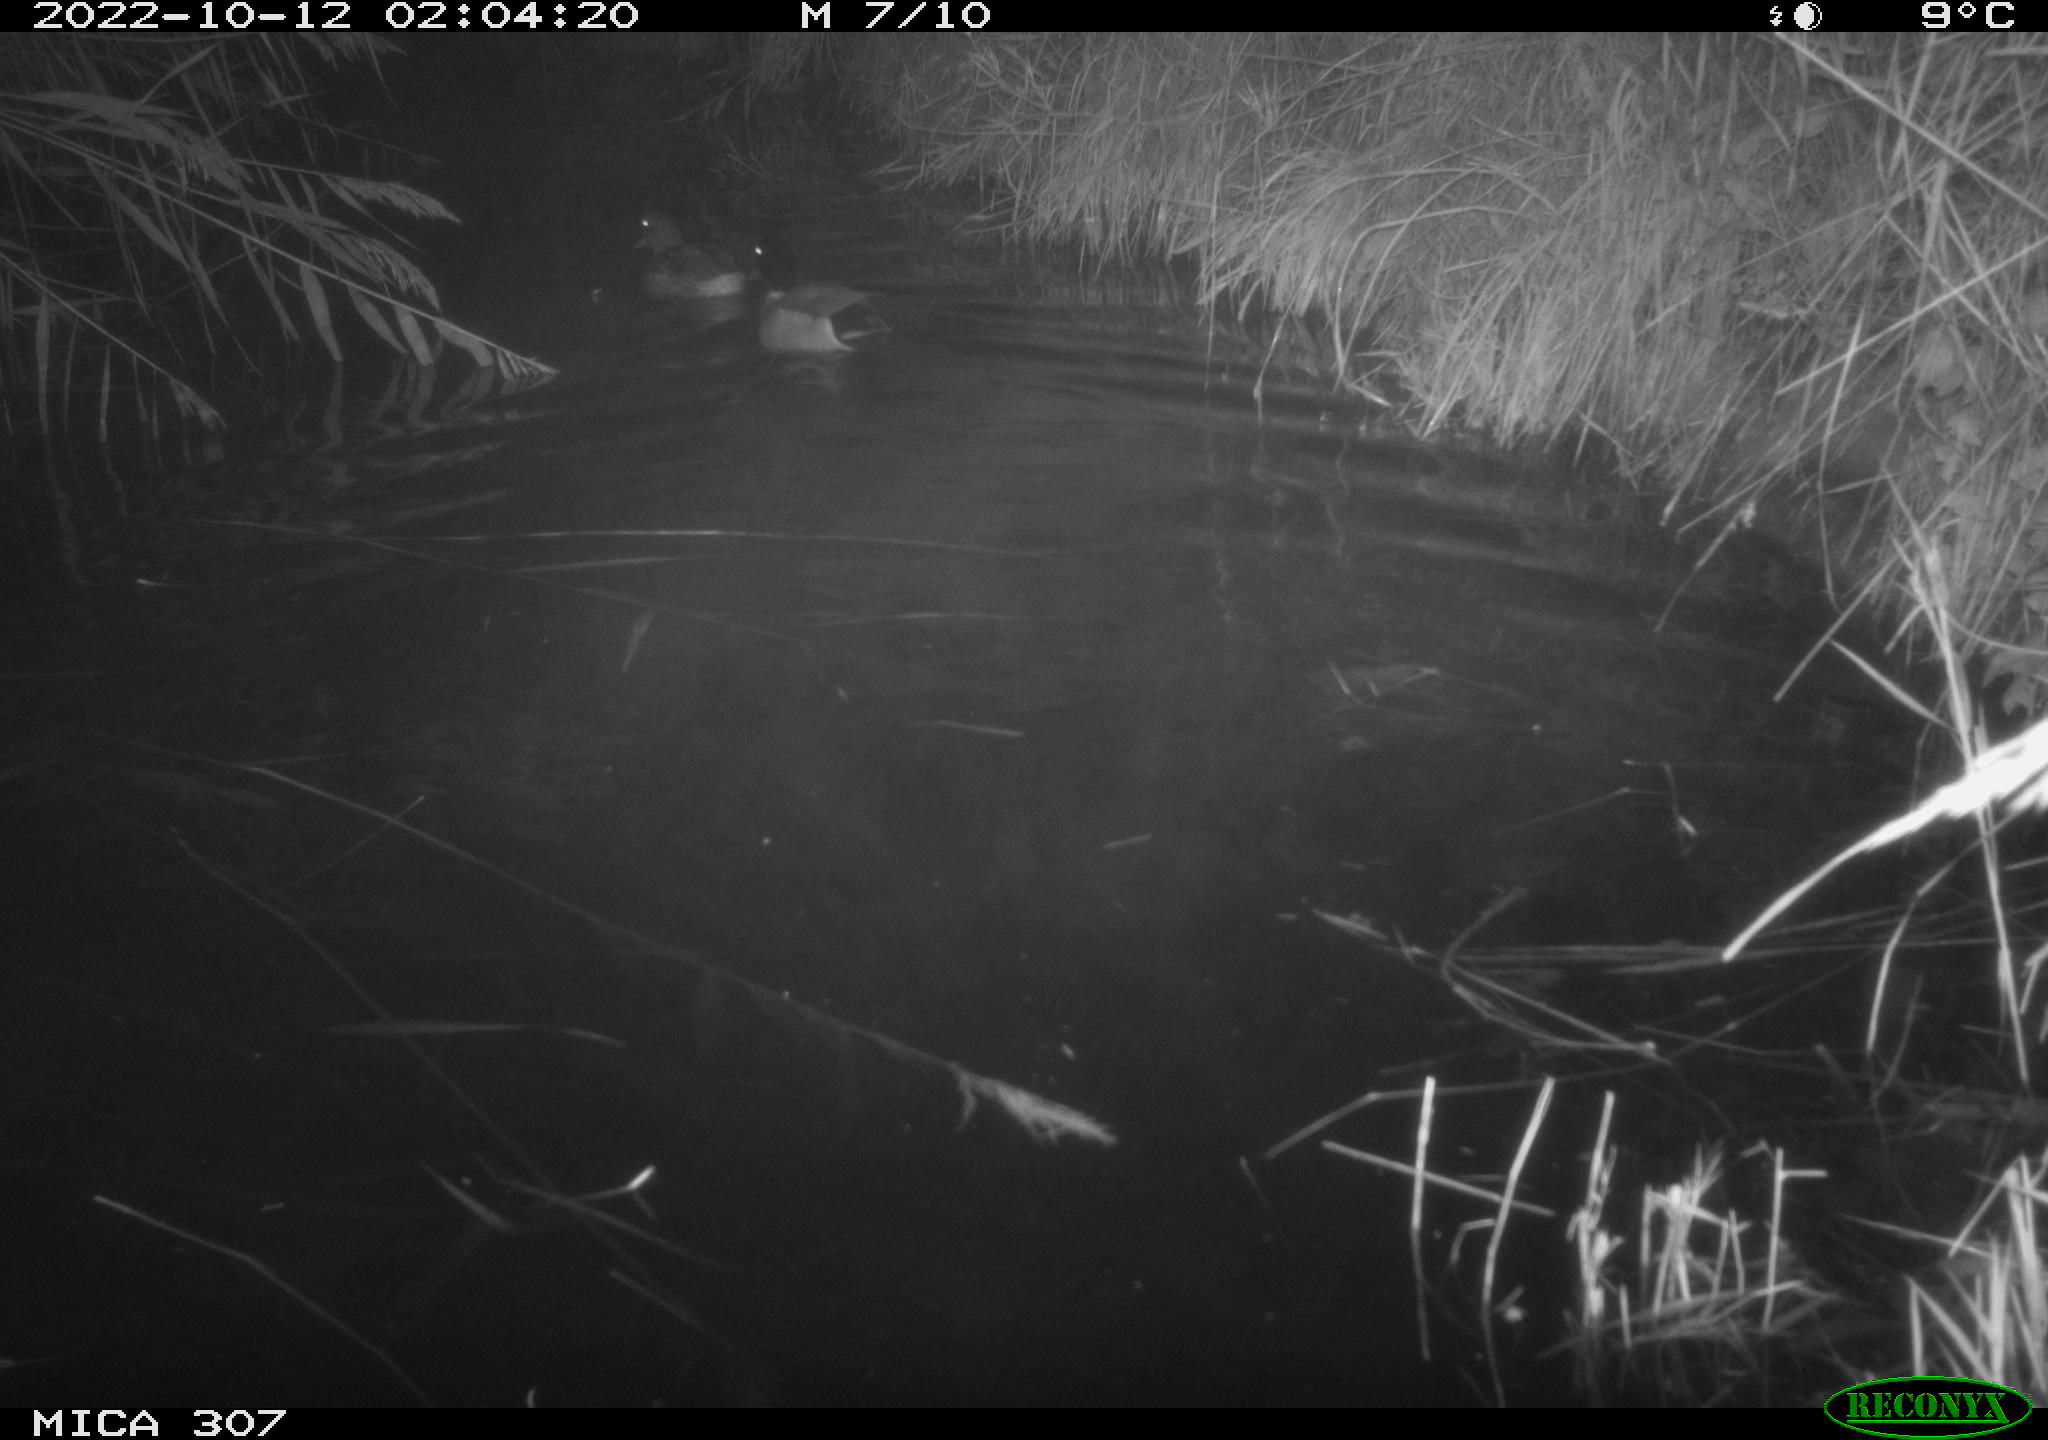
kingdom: Animalia
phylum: Chordata
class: Aves
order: Anseriformes
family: Anatidae
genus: Anas
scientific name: Anas
